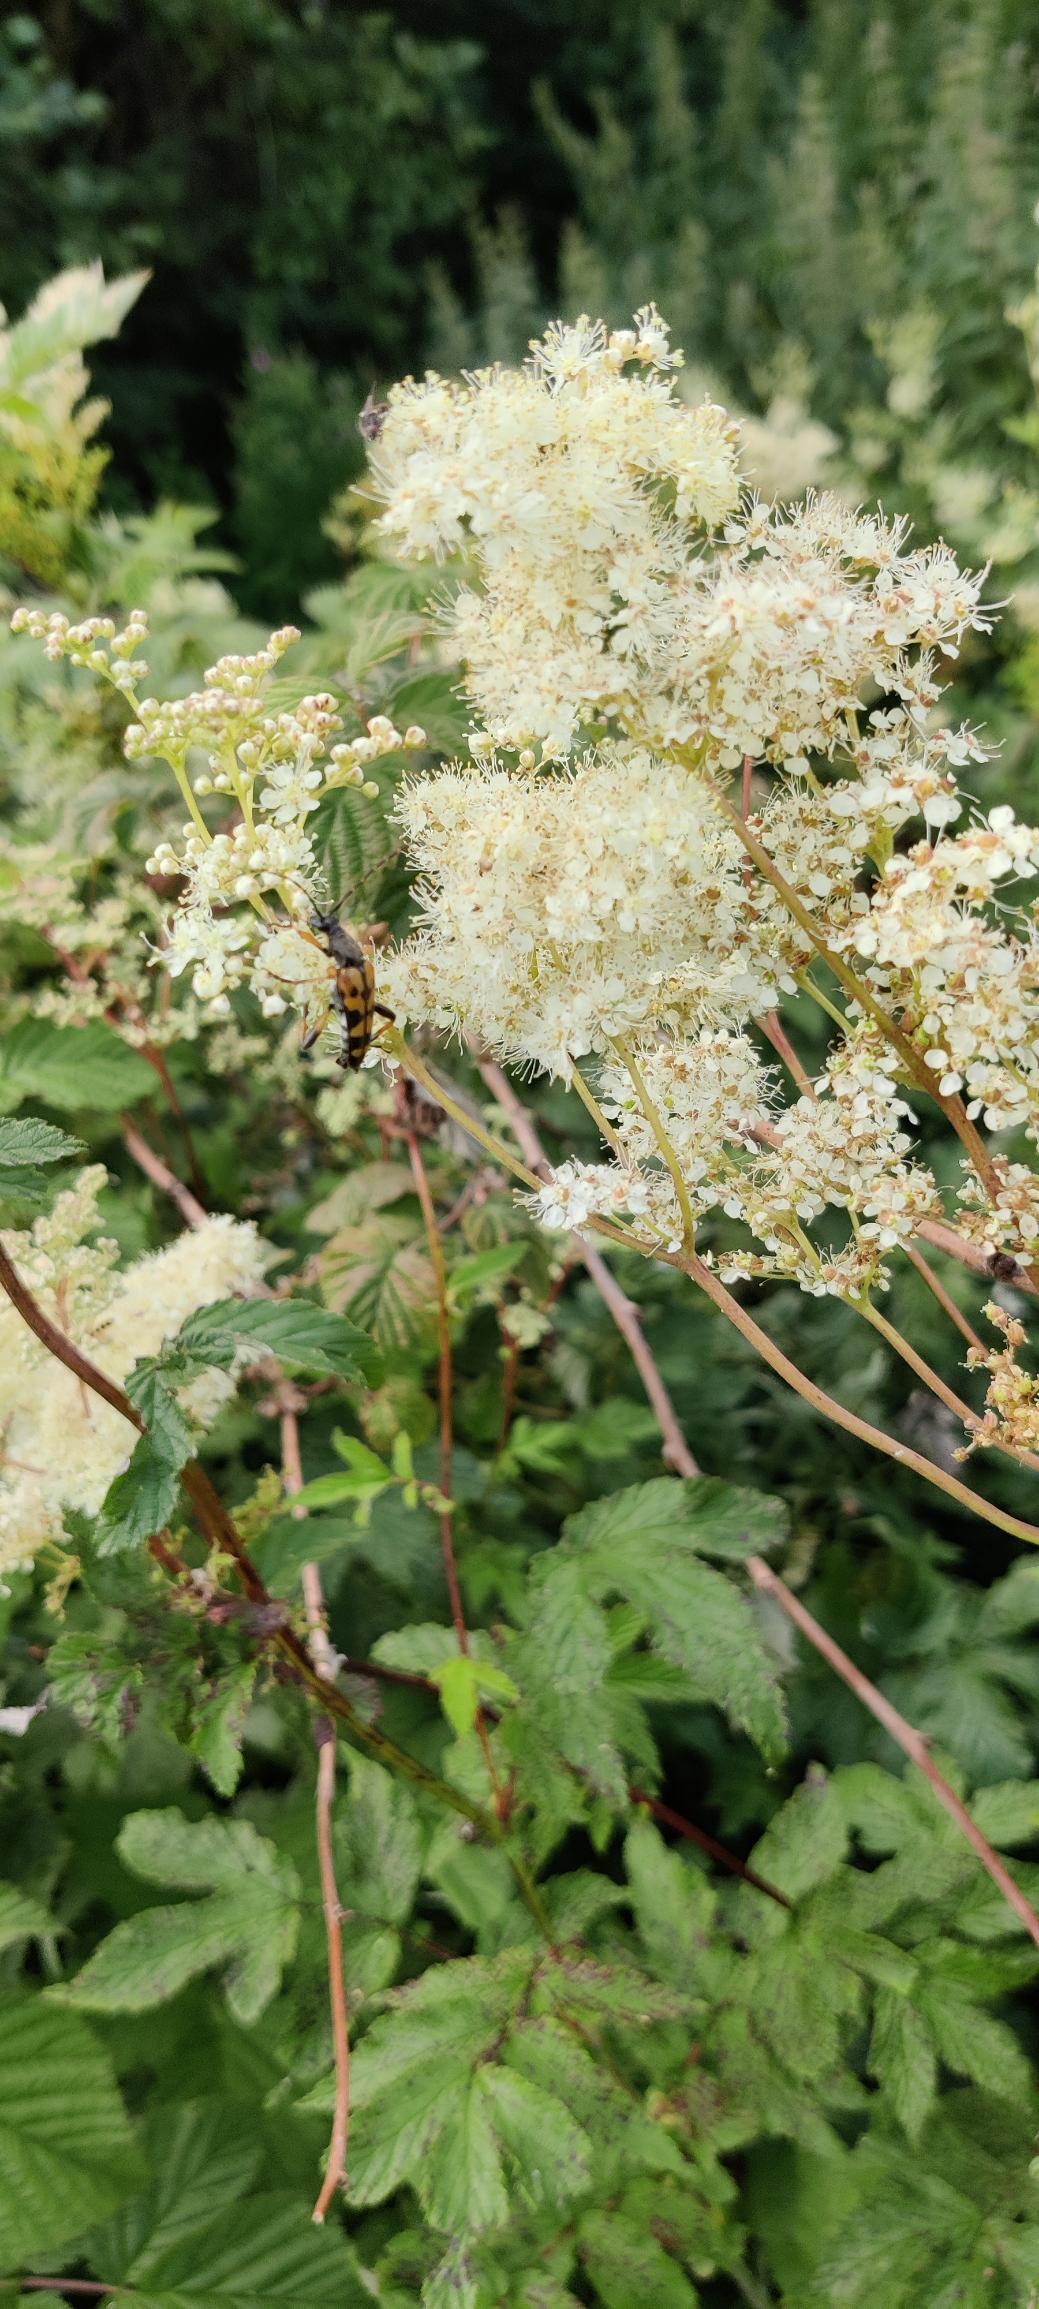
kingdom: Plantae
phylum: Tracheophyta
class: Magnoliopsida
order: Rosales
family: Rosaceae
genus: Filipendula
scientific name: Filipendula ulmaria
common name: Almindelig mjødurt
